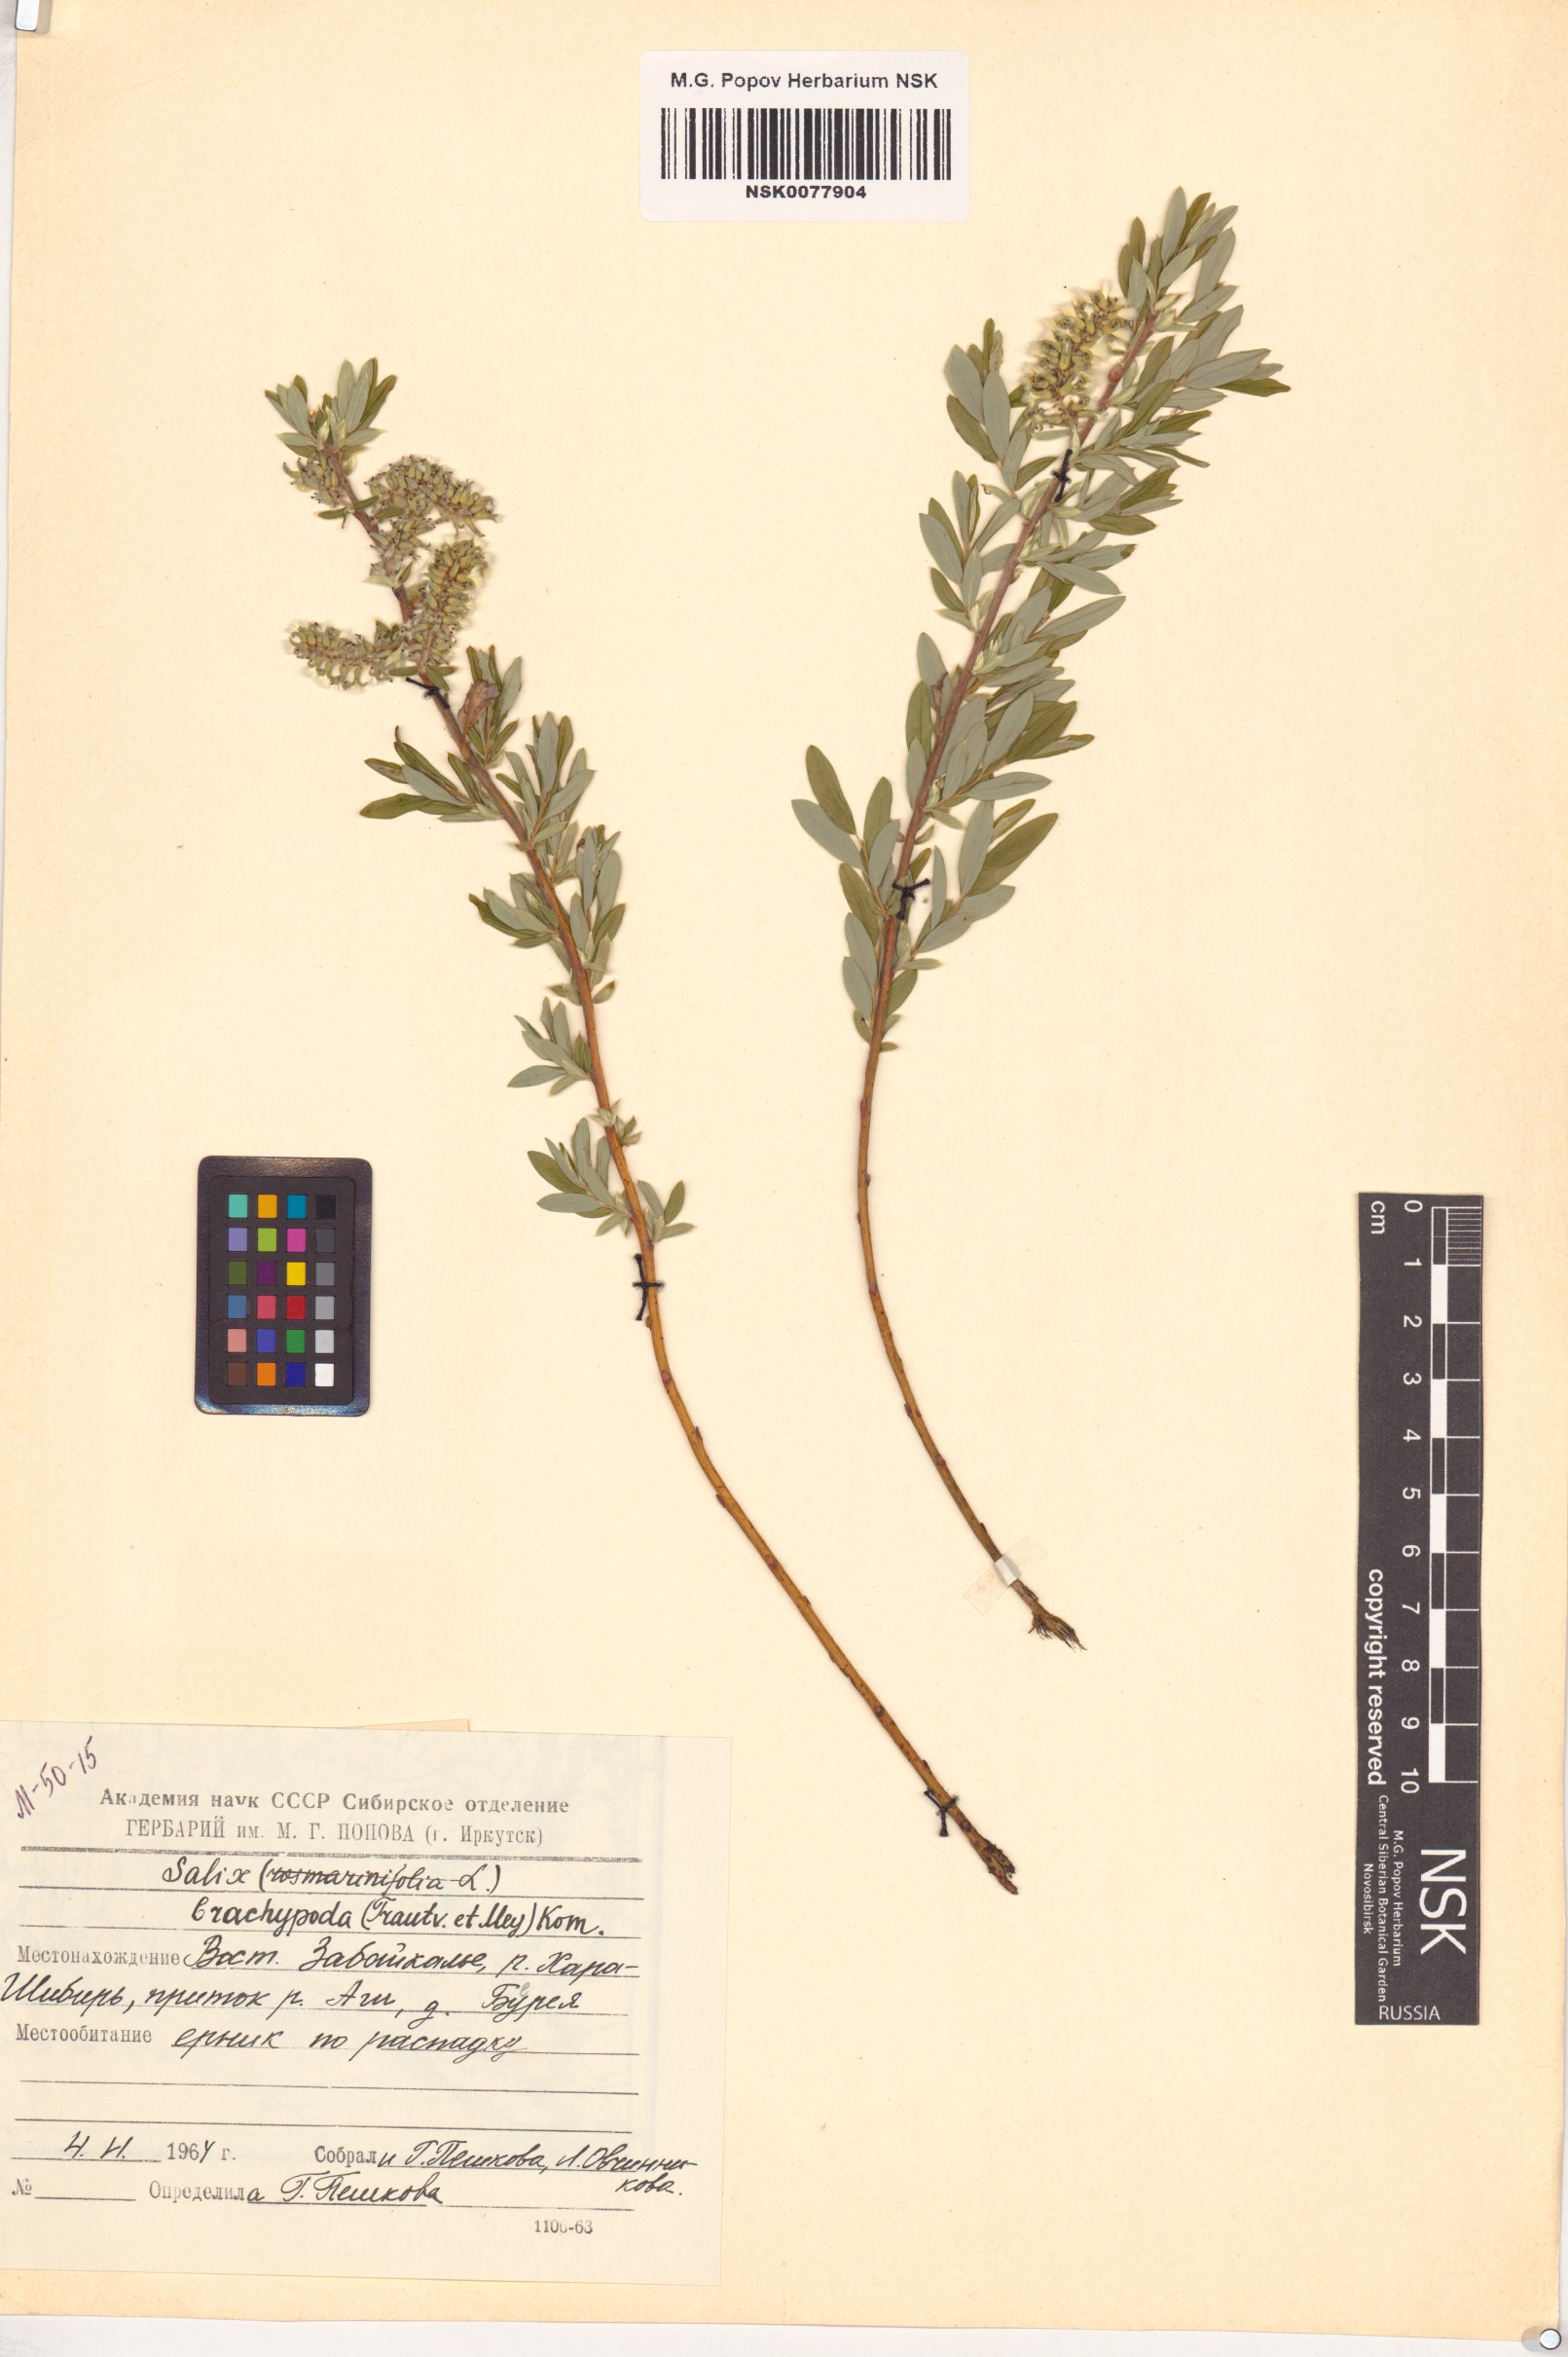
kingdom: Plantae
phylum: Tracheophyta
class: Magnoliopsida
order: Malpighiales
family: Salicaceae
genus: Salix
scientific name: Salix brachypoda
